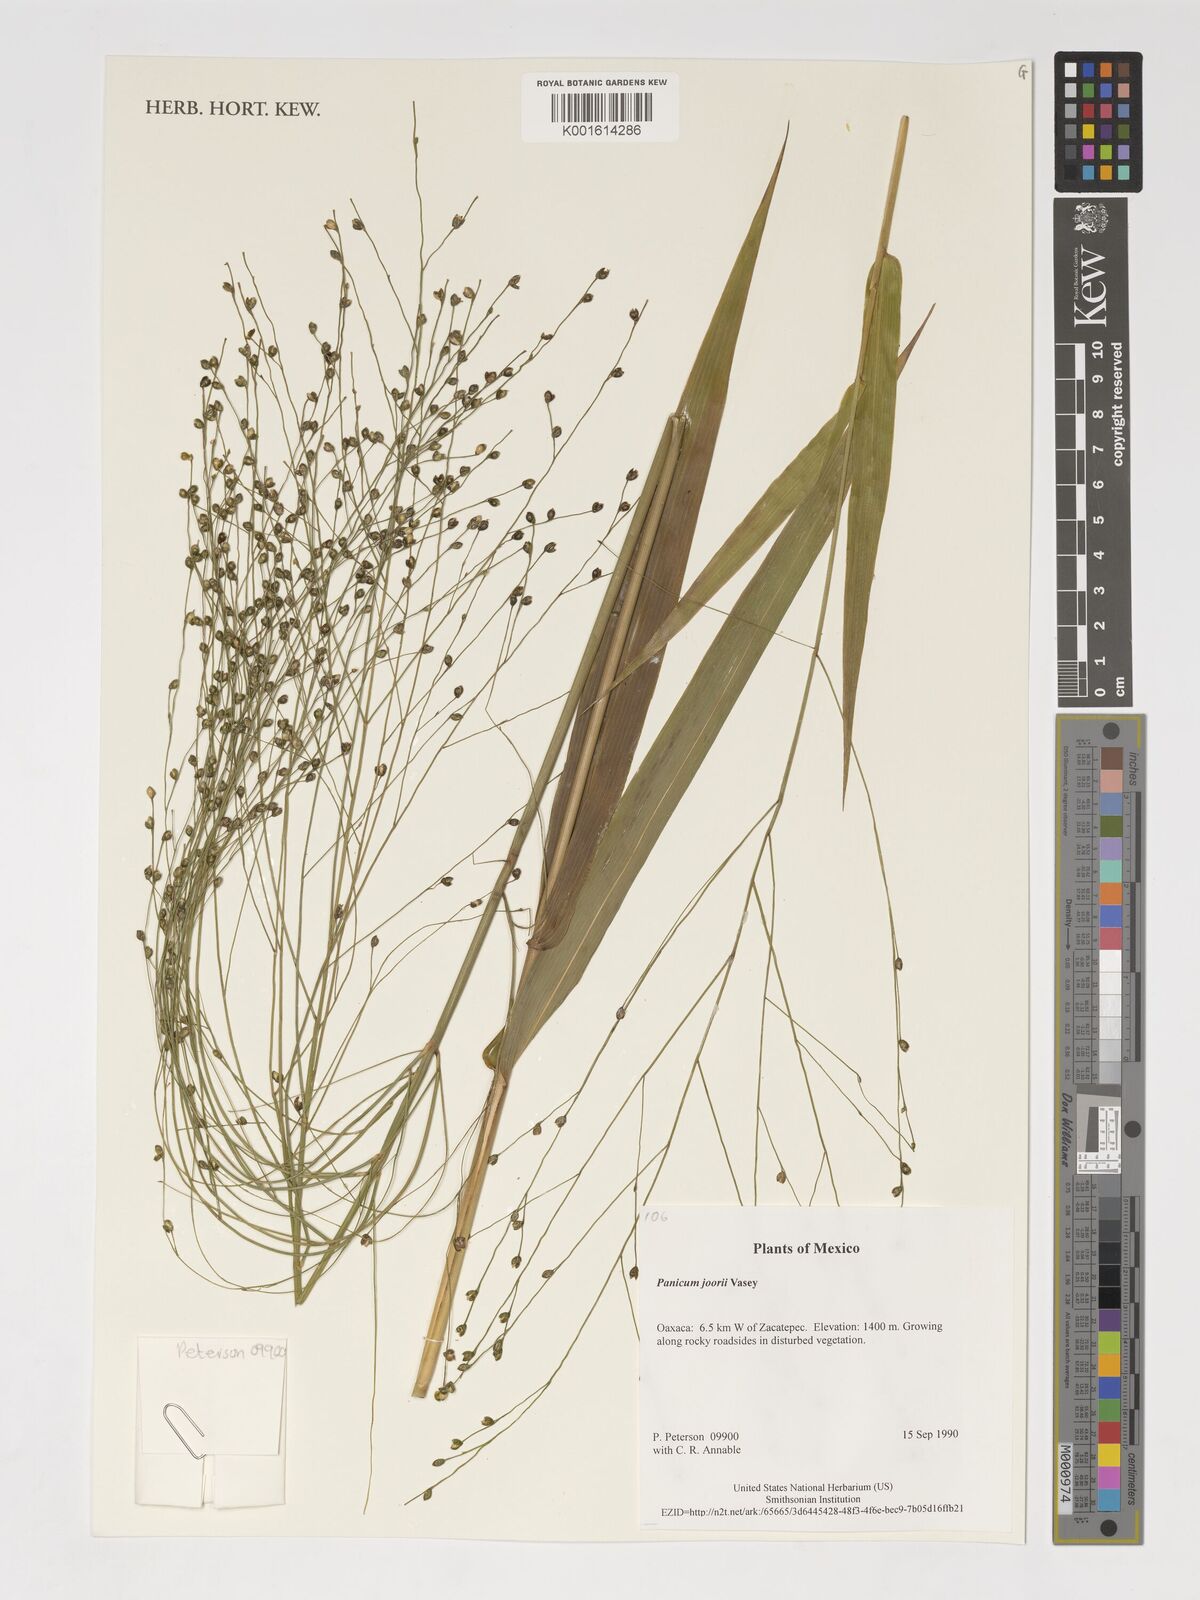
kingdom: Plantae
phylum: Tracheophyta
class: Liliopsida
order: Poales
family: Poaceae
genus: Dichanthelium
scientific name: Dichanthelium commutatum
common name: Variable witchgrass
